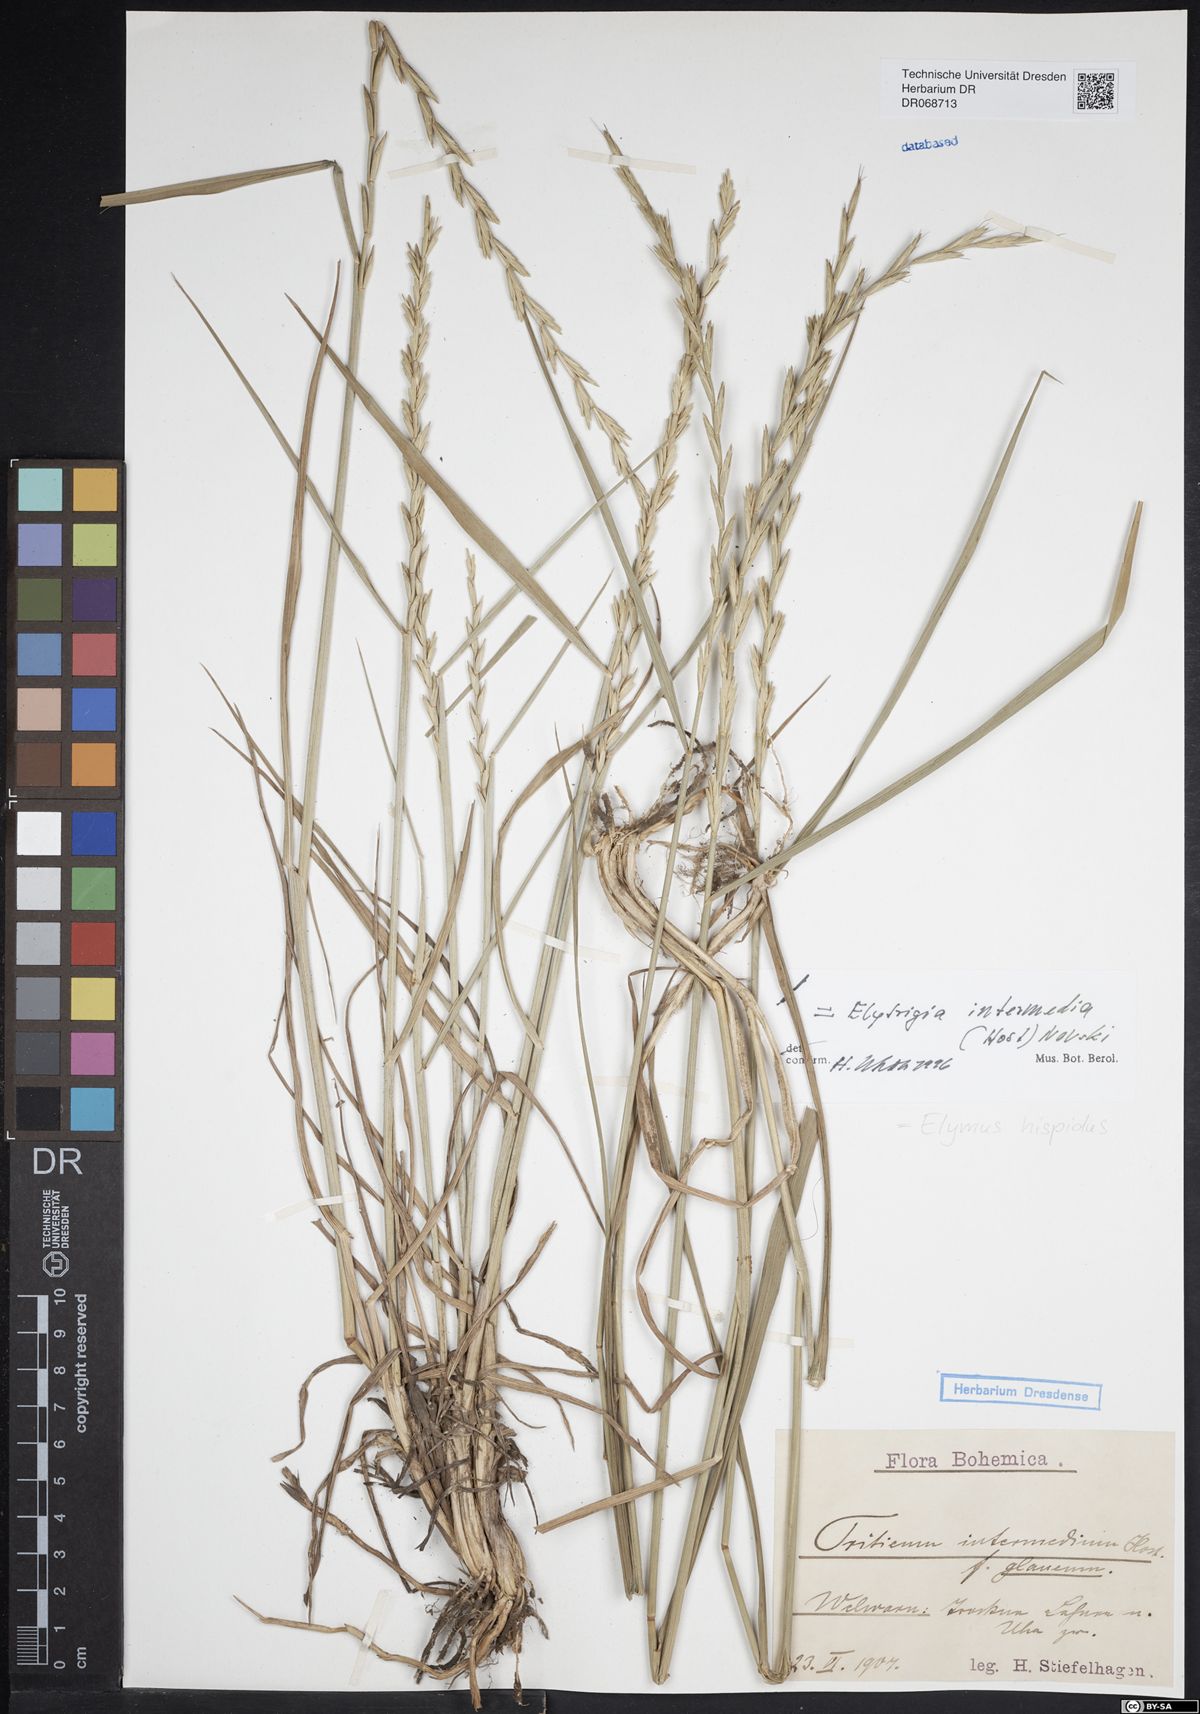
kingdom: Plantae
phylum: Tracheophyta
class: Liliopsida
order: Poales
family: Poaceae
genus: Thinopyrum
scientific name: Thinopyrum intermedium
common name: Intermediate wheatgrass
